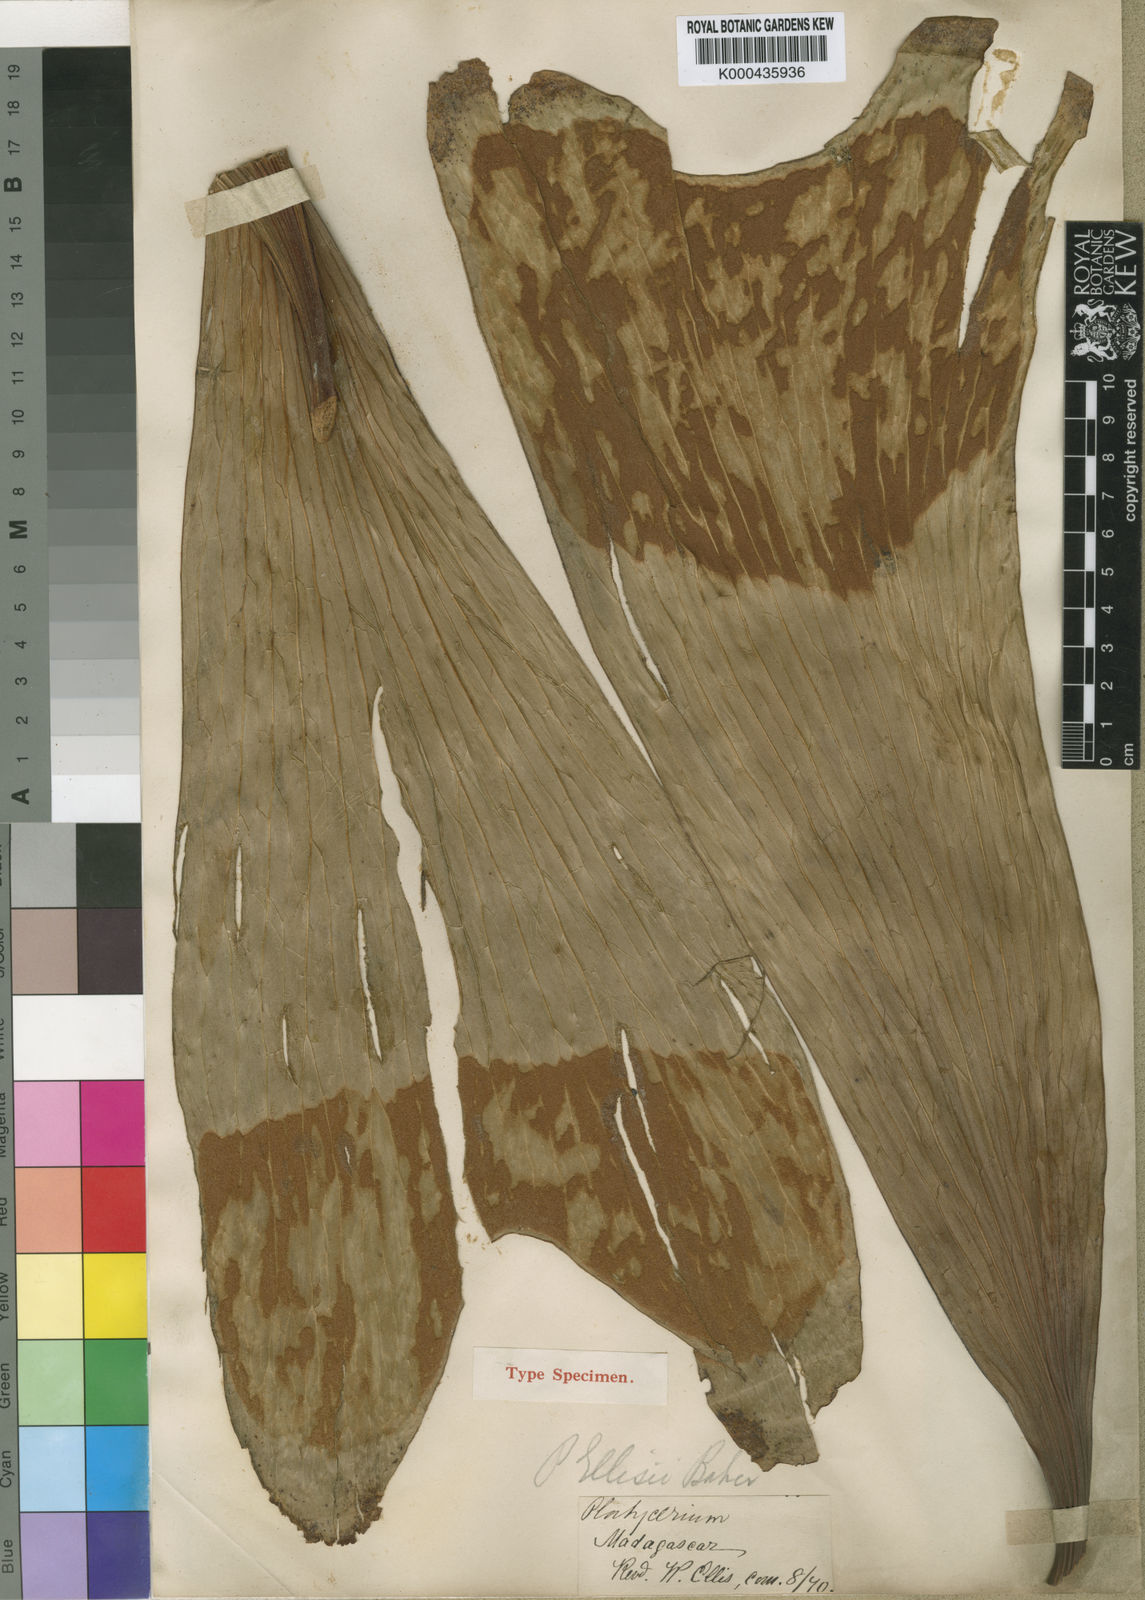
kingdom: Plantae
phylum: Tracheophyta
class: Polypodiopsida
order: Polypodiales
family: Polypodiaceae
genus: Platycerium
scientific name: Platycerium ellisii
